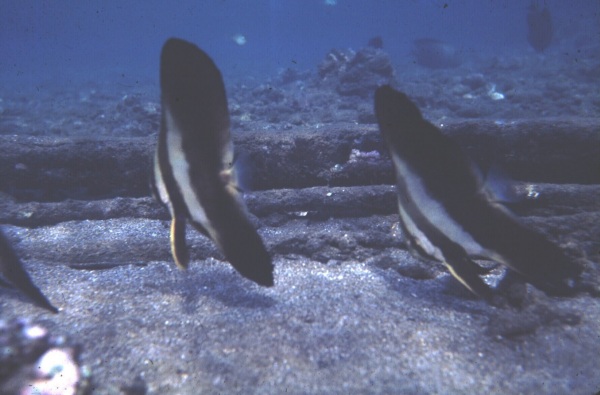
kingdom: Animalia
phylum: Chordata
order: Perciformes
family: Ephippidae
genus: Platax
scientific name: Platax orbicularis
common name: Batfish
